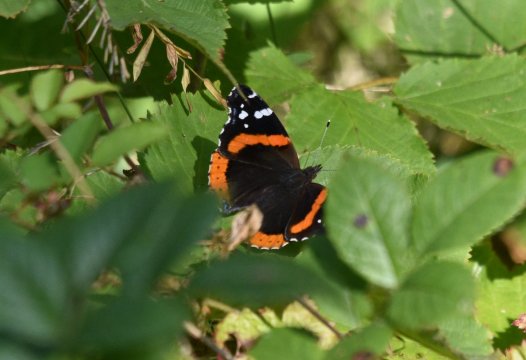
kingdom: Animalia
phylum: Arthropoda
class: Insecta
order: Lepidoptera
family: Nymphalidae
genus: Vanessa
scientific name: Vanessa atalanta
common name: Red Admiral
